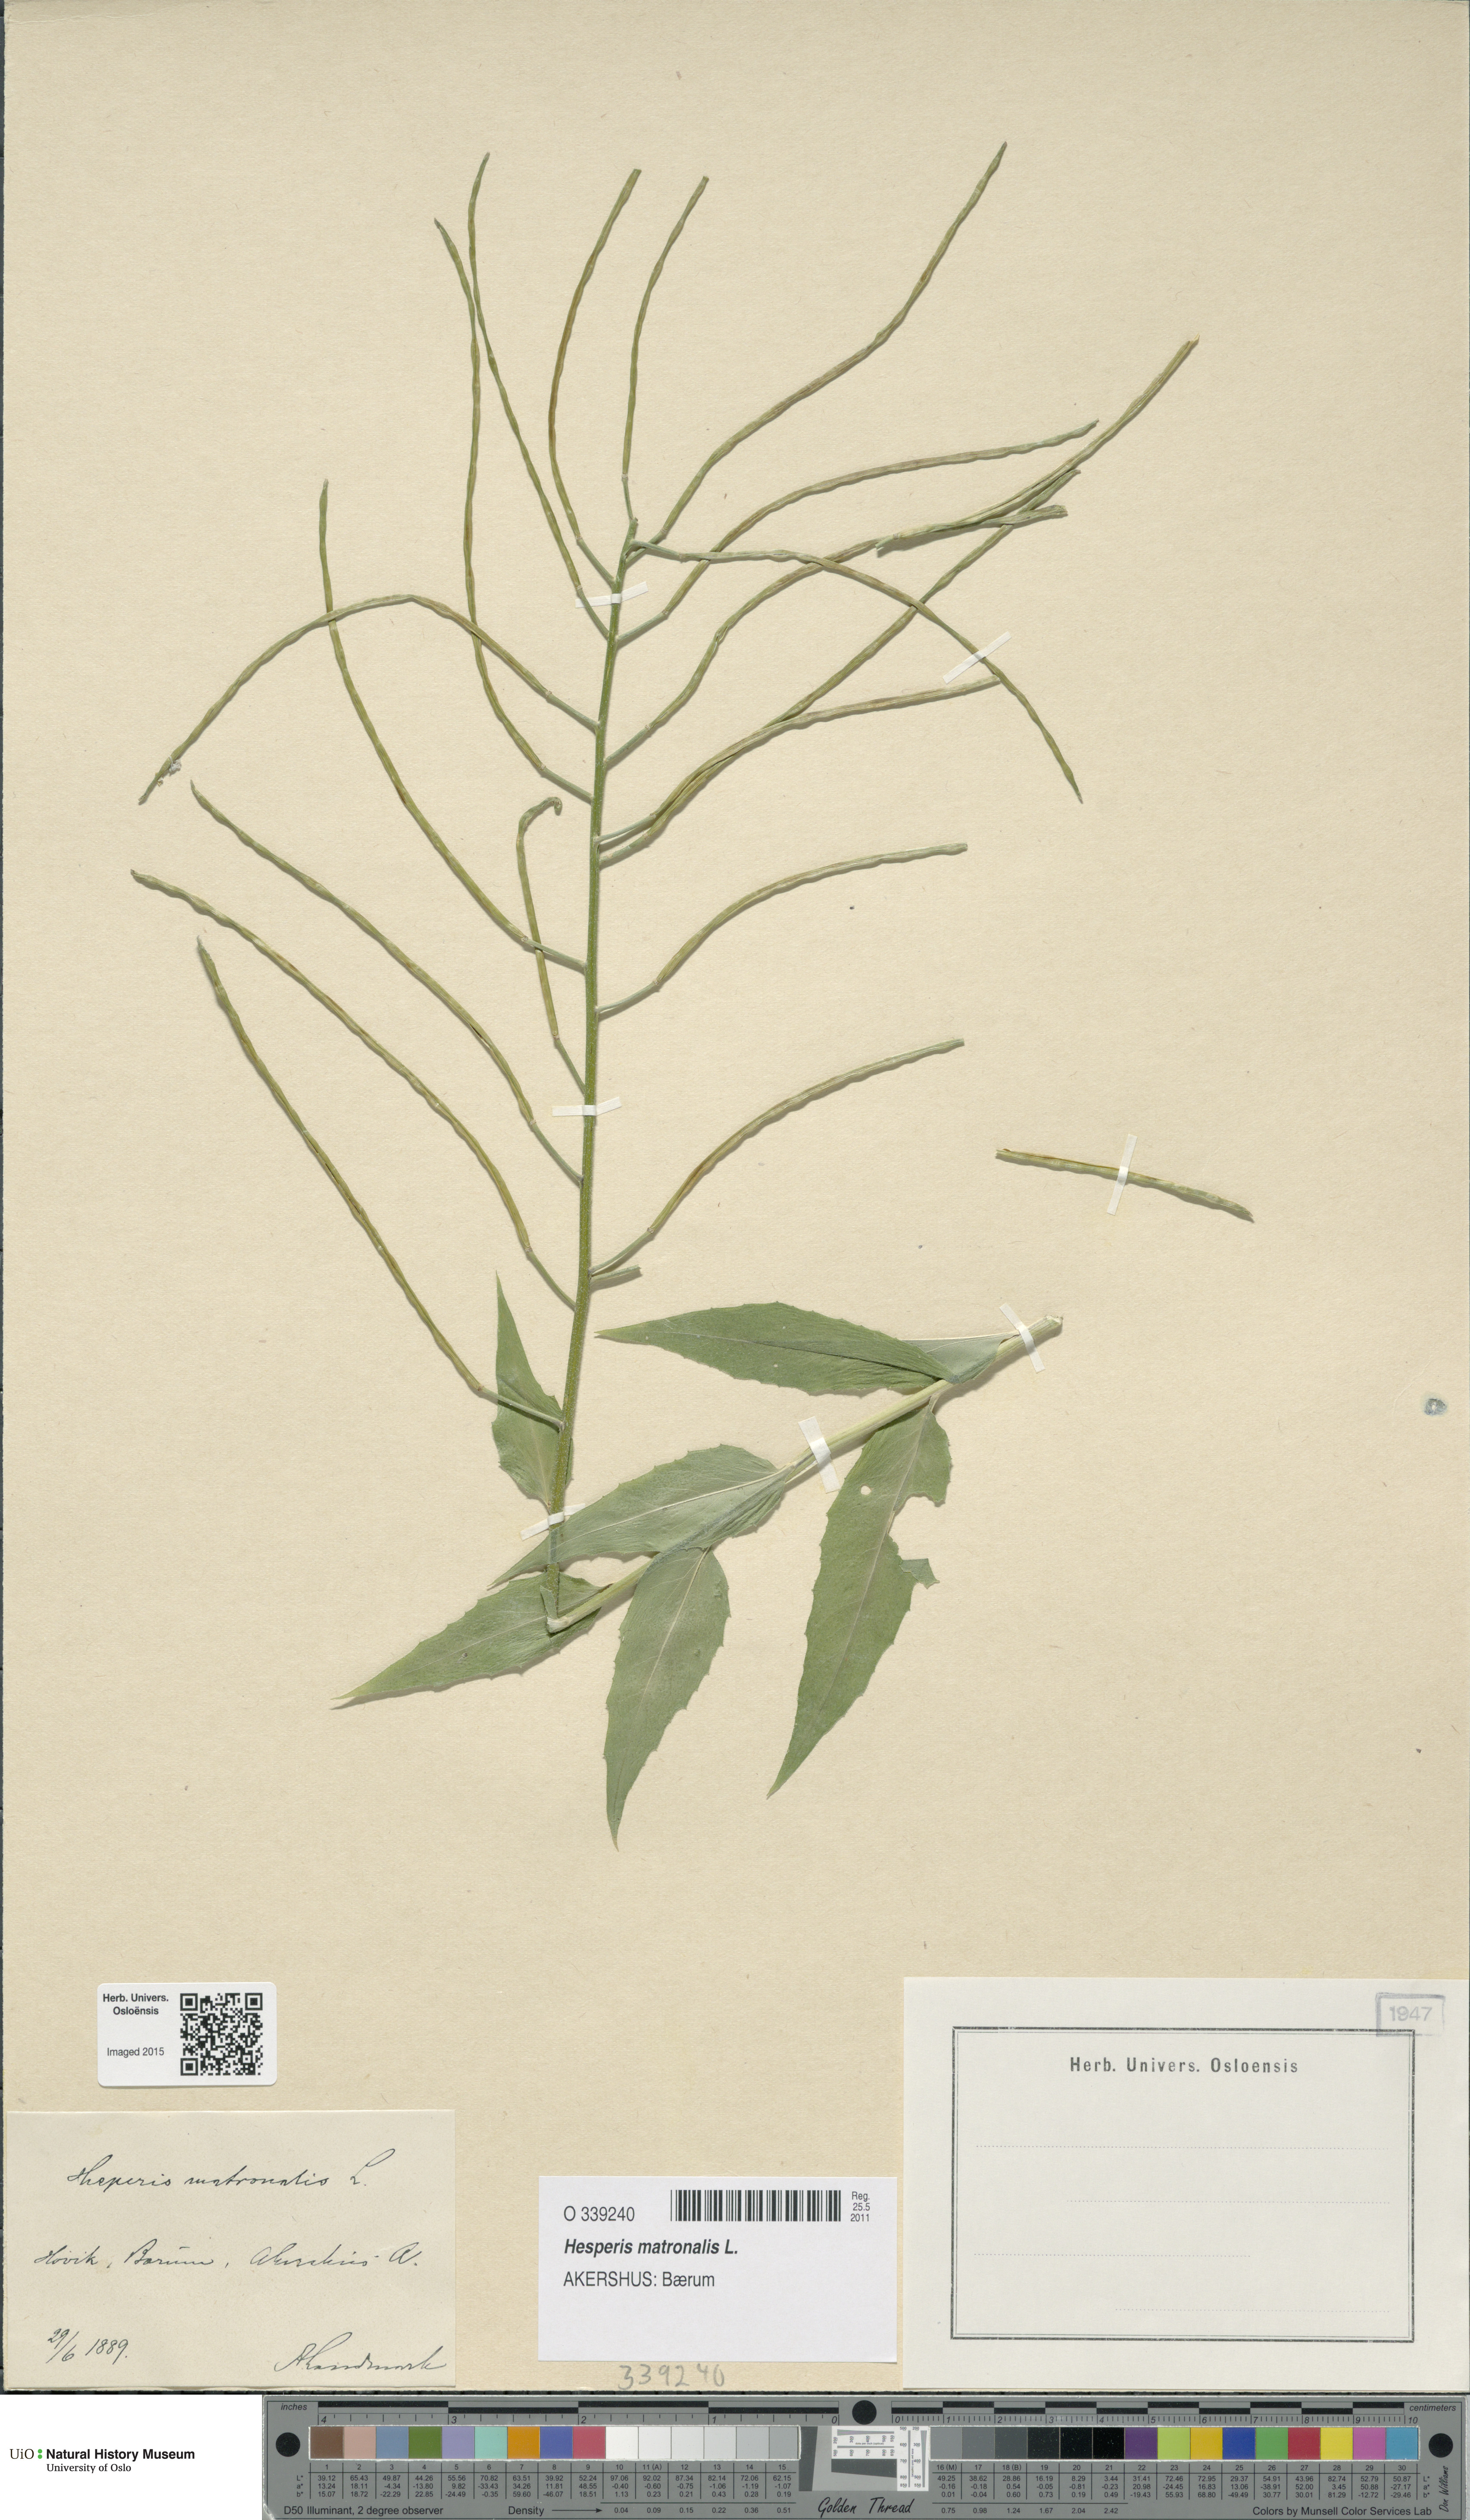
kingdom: Plantae
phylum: Tracheophyta
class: Magnoliopsida
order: Brassicales
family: Brassicaceae
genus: Hesperis
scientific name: Hesperis matronalis
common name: Dame's-violet
